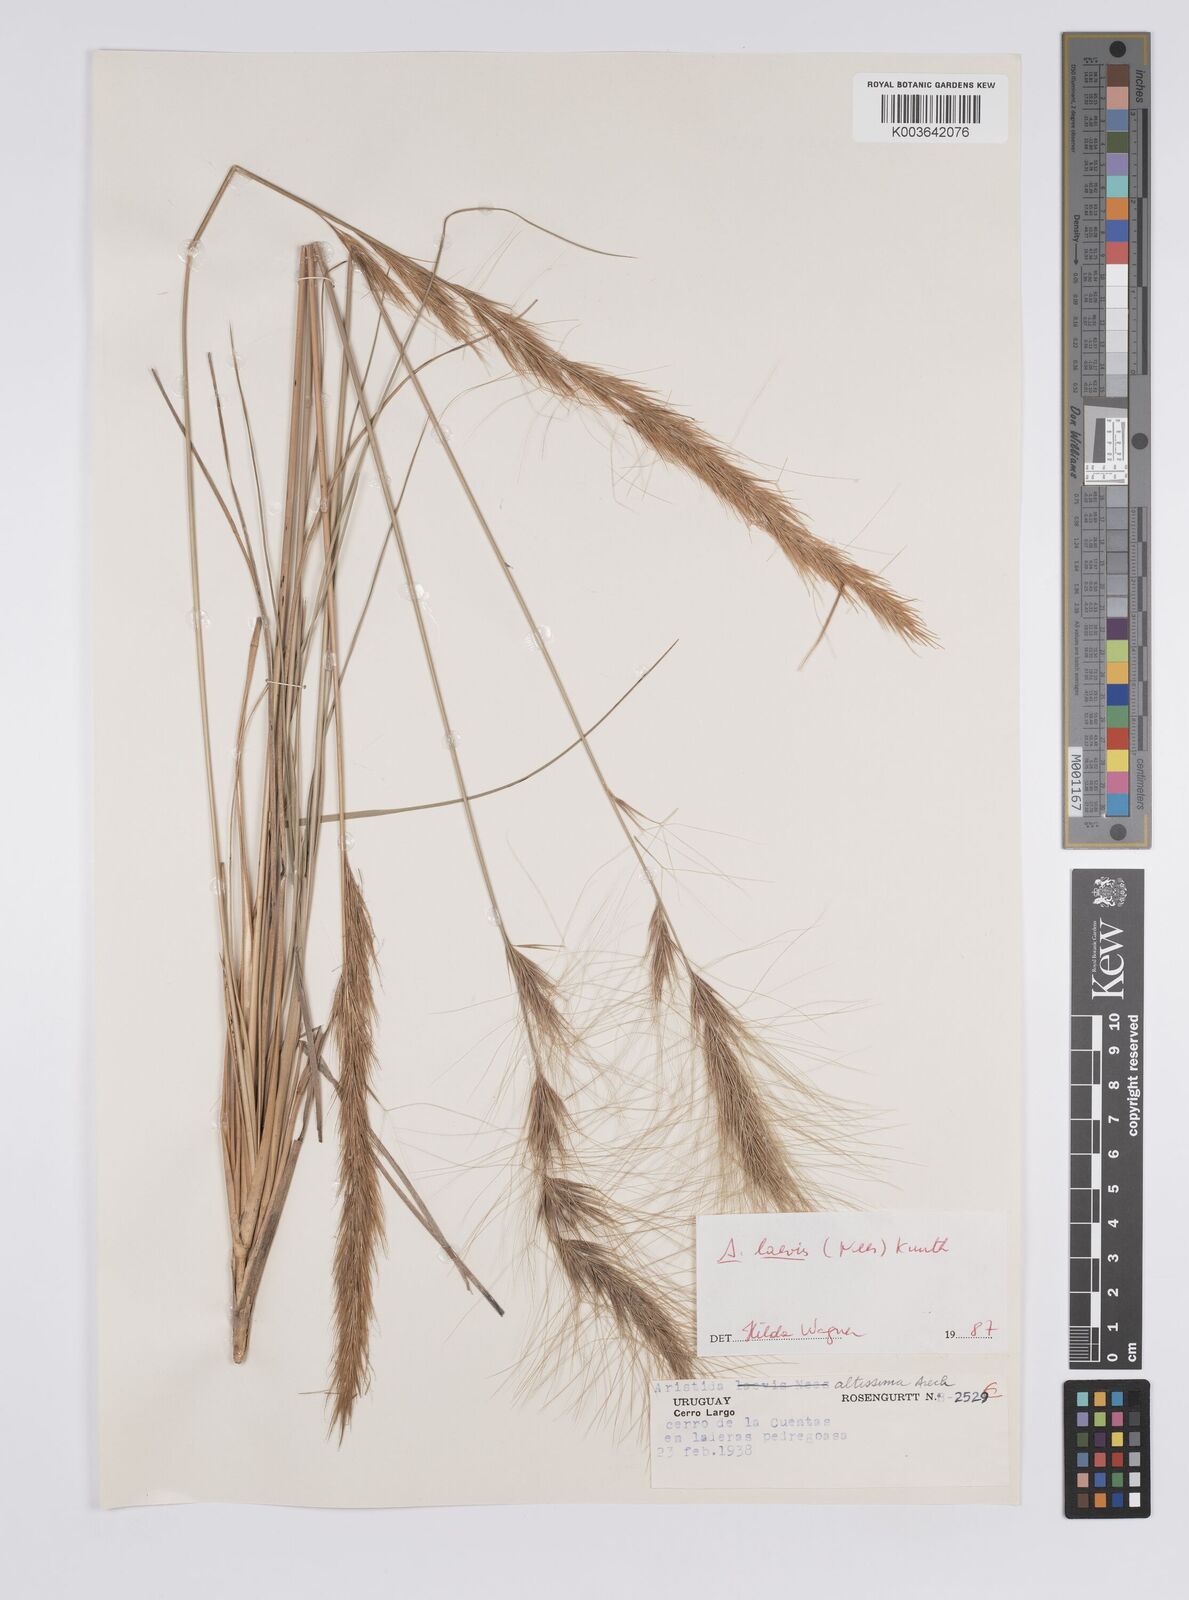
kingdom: Plantae
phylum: Tracheophyta
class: Liliopsida
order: Poales
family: Poaceae
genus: Aristida
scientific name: Aristida laevis
